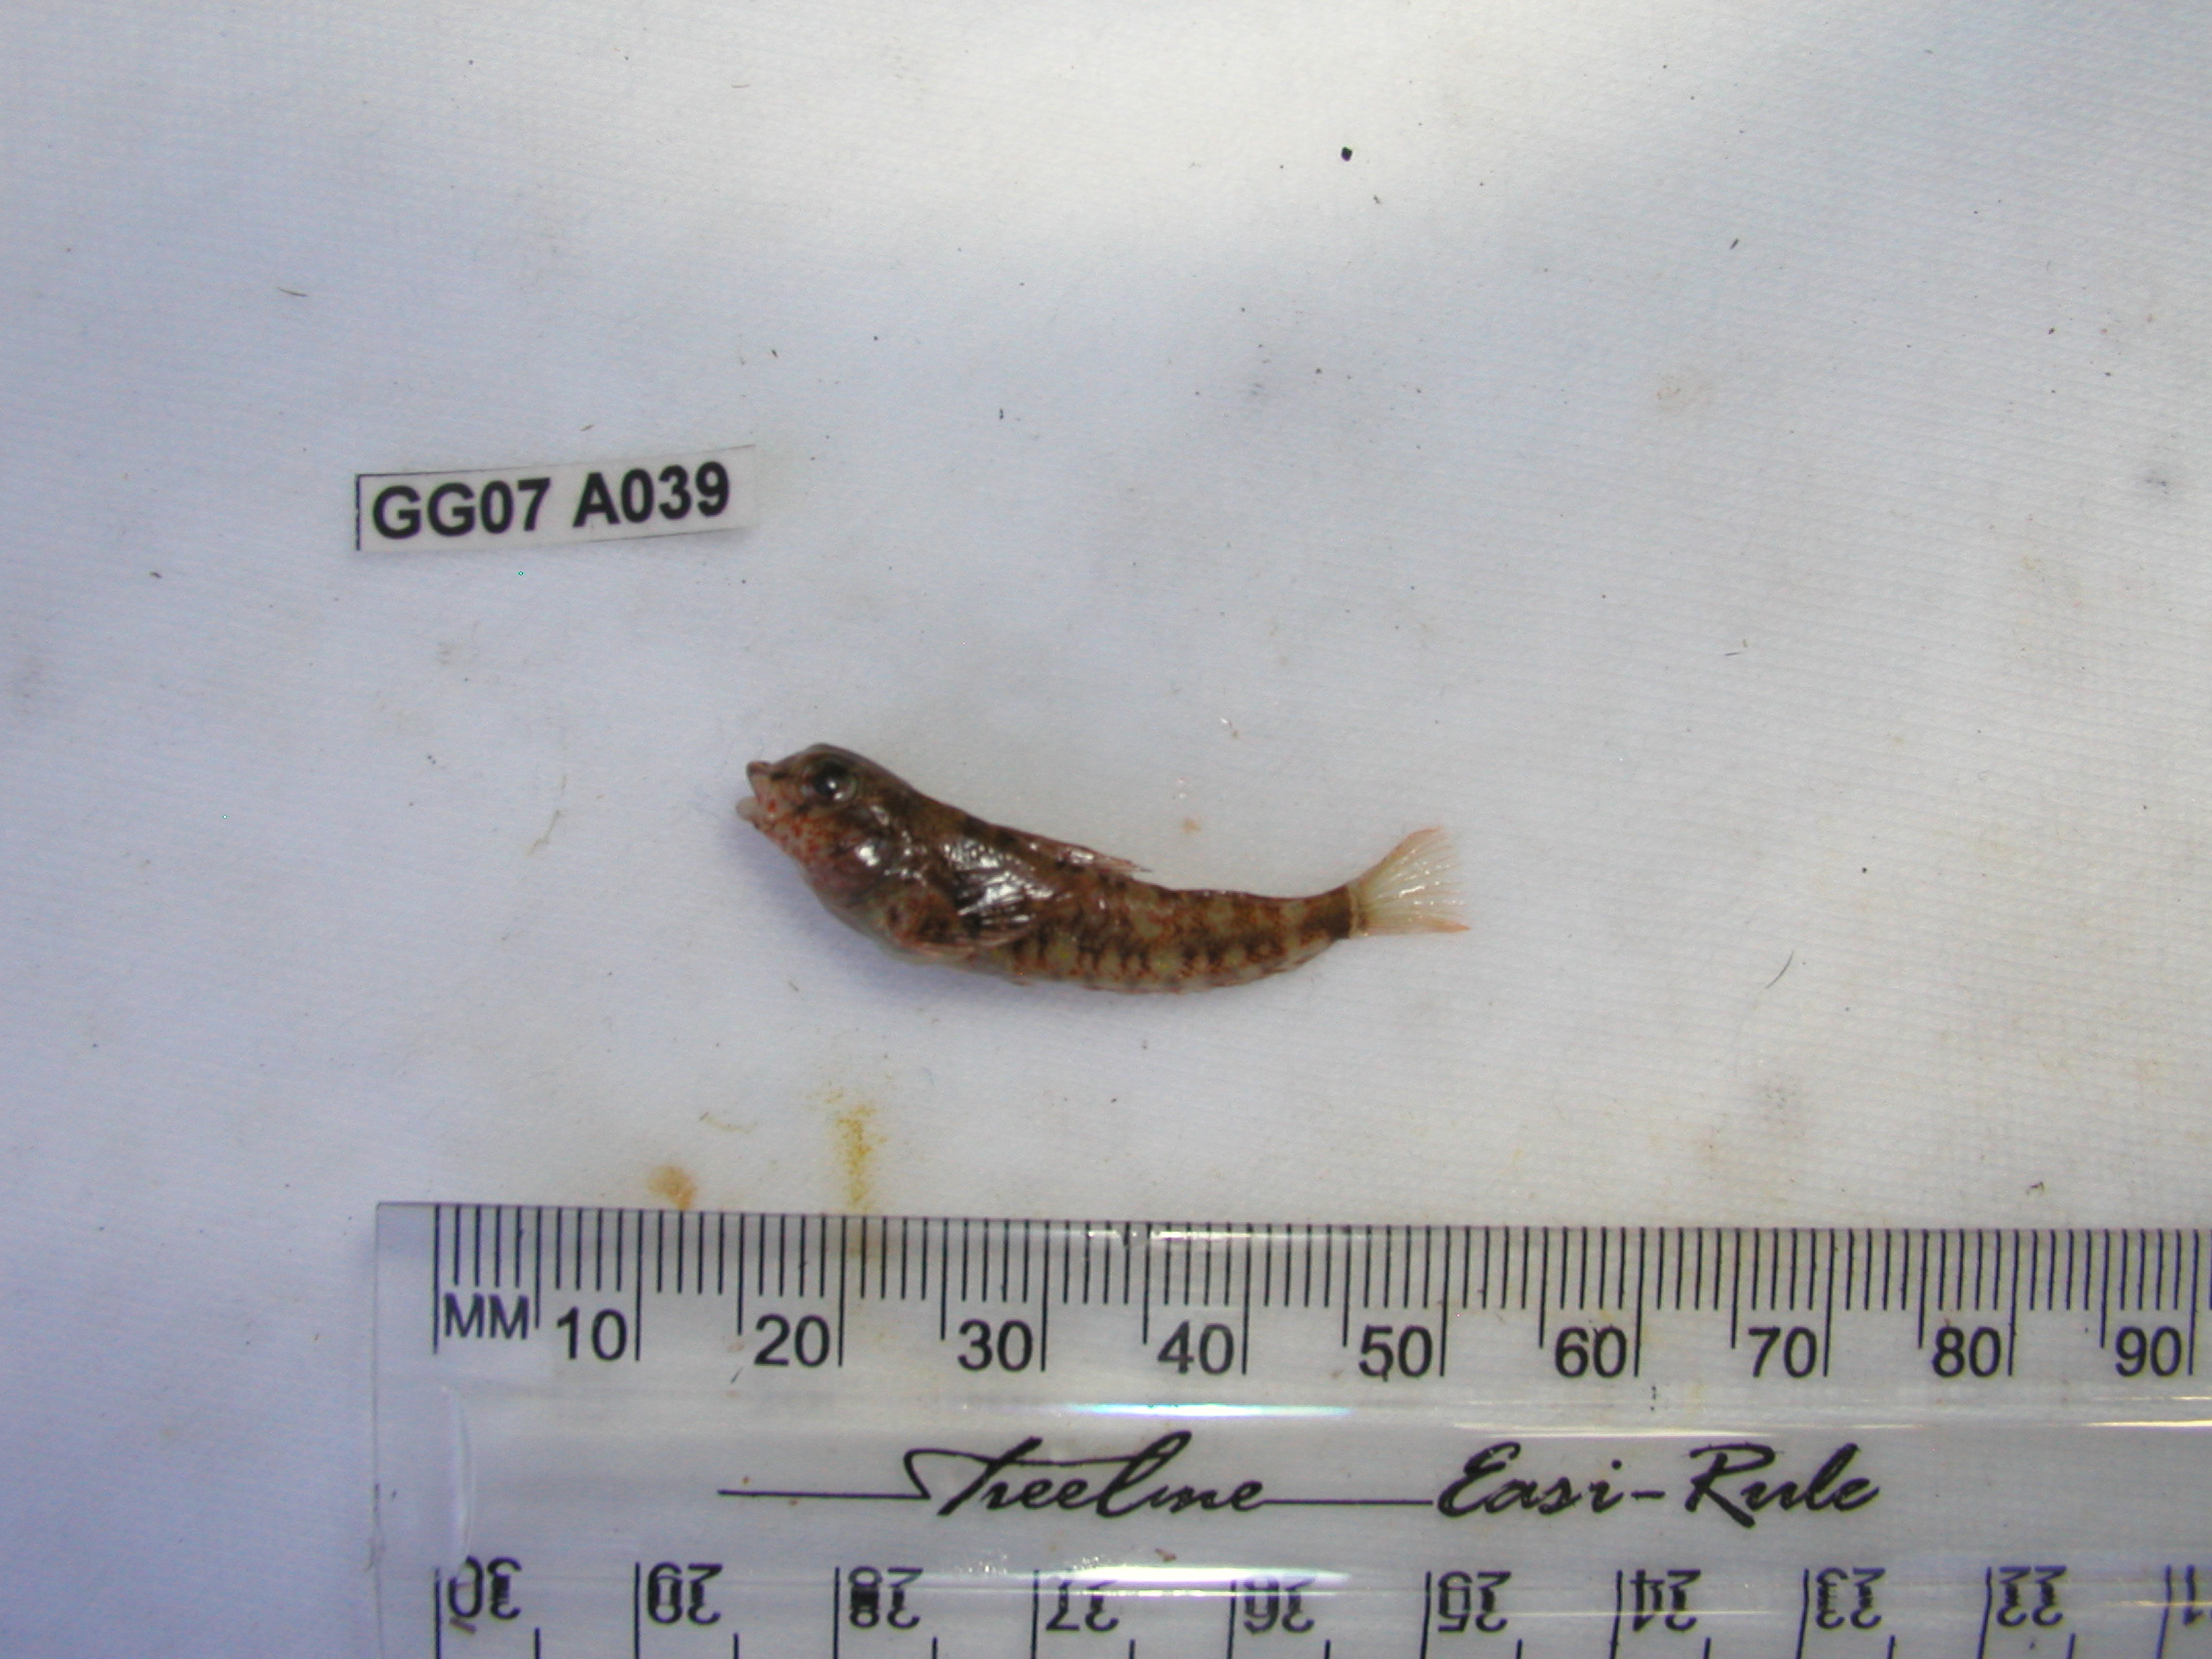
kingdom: Animalia
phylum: Chordata
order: Perciformes
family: Tripterygiidae
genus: Helcogramma
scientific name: Helcogramma rharhabe
